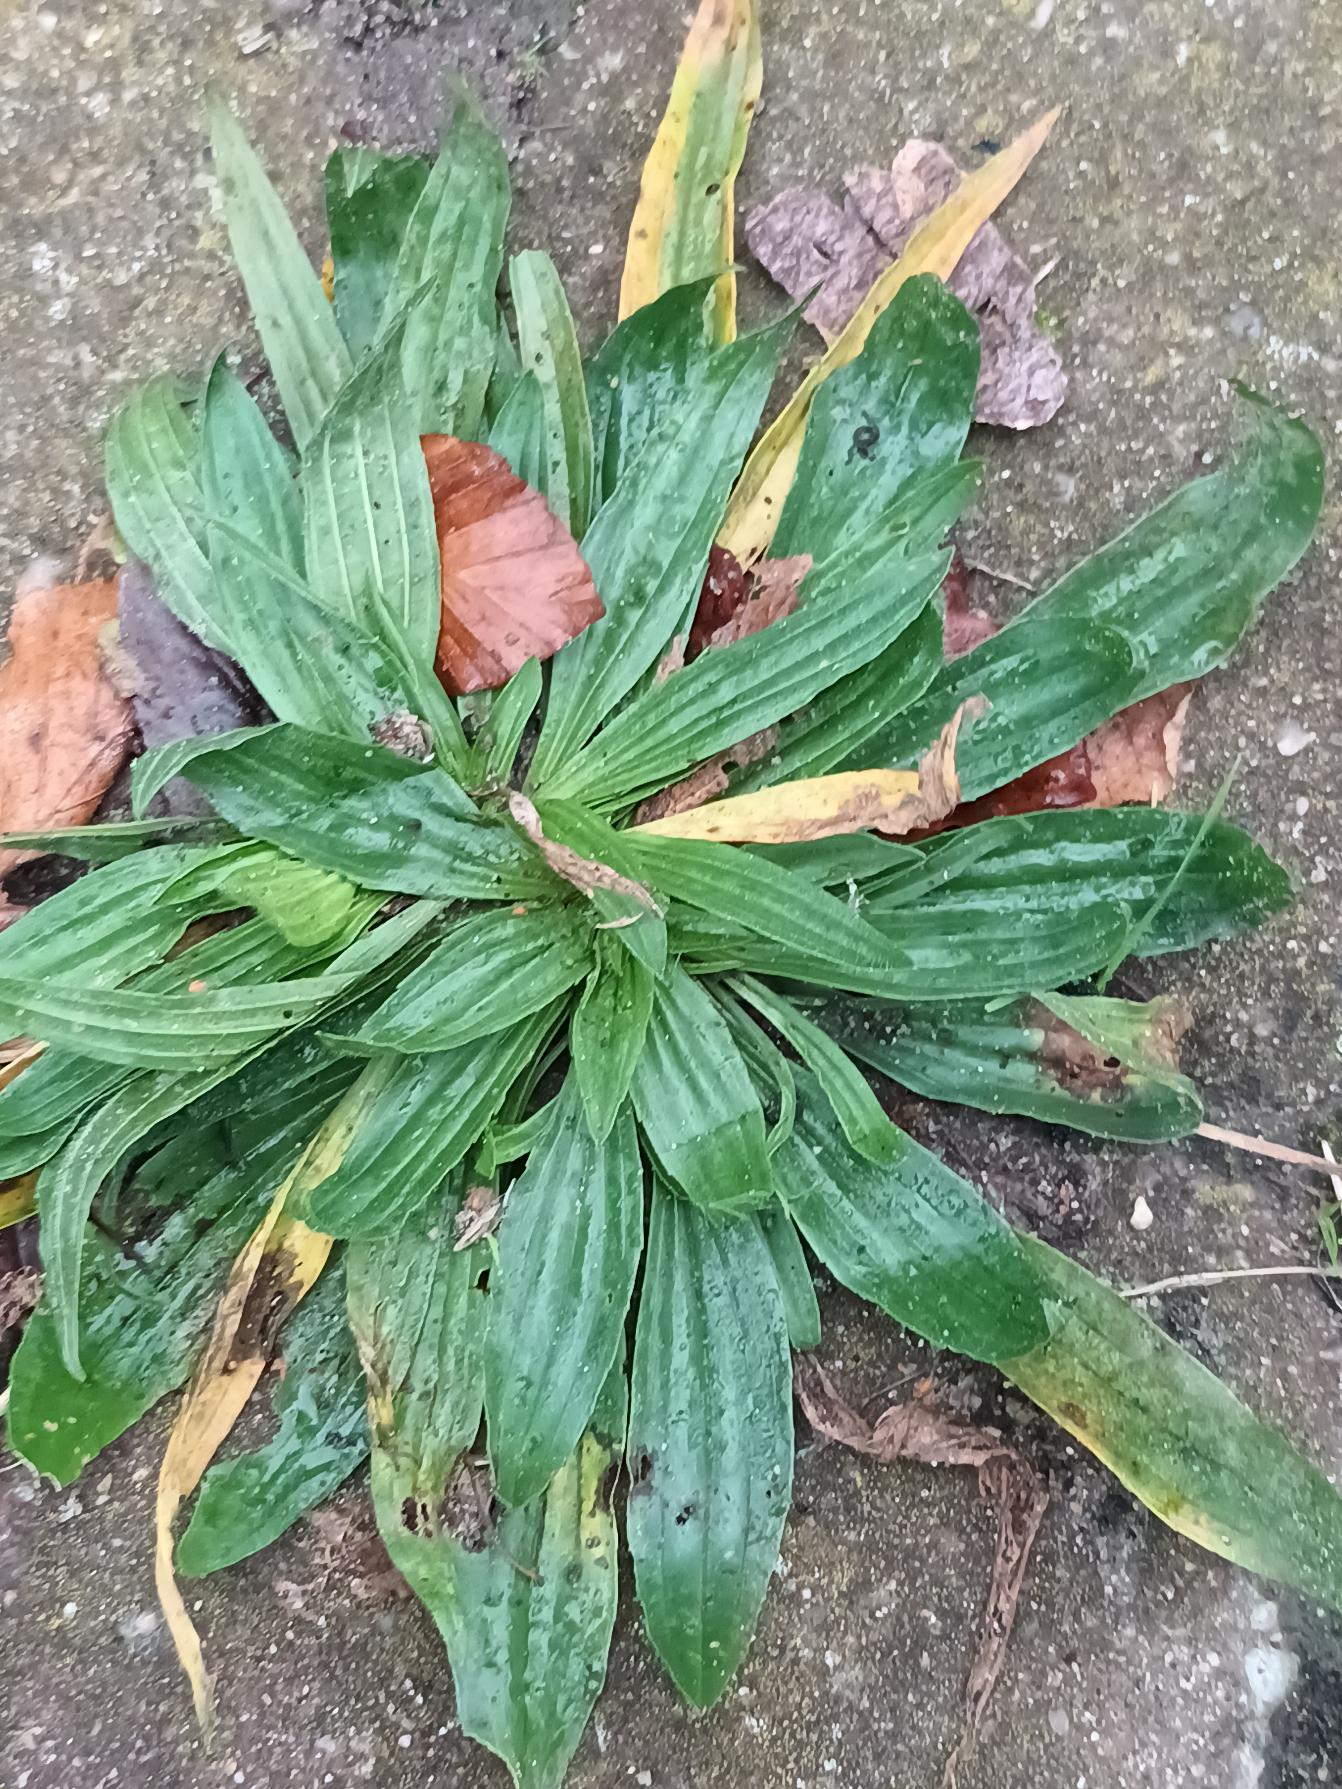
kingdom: Plantae
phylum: Tracheophyta
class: Magnoliopsida
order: Lamiales
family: Plantaginaceae
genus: Plantago
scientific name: Plantago lanceolata
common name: Lancet-vejbred
